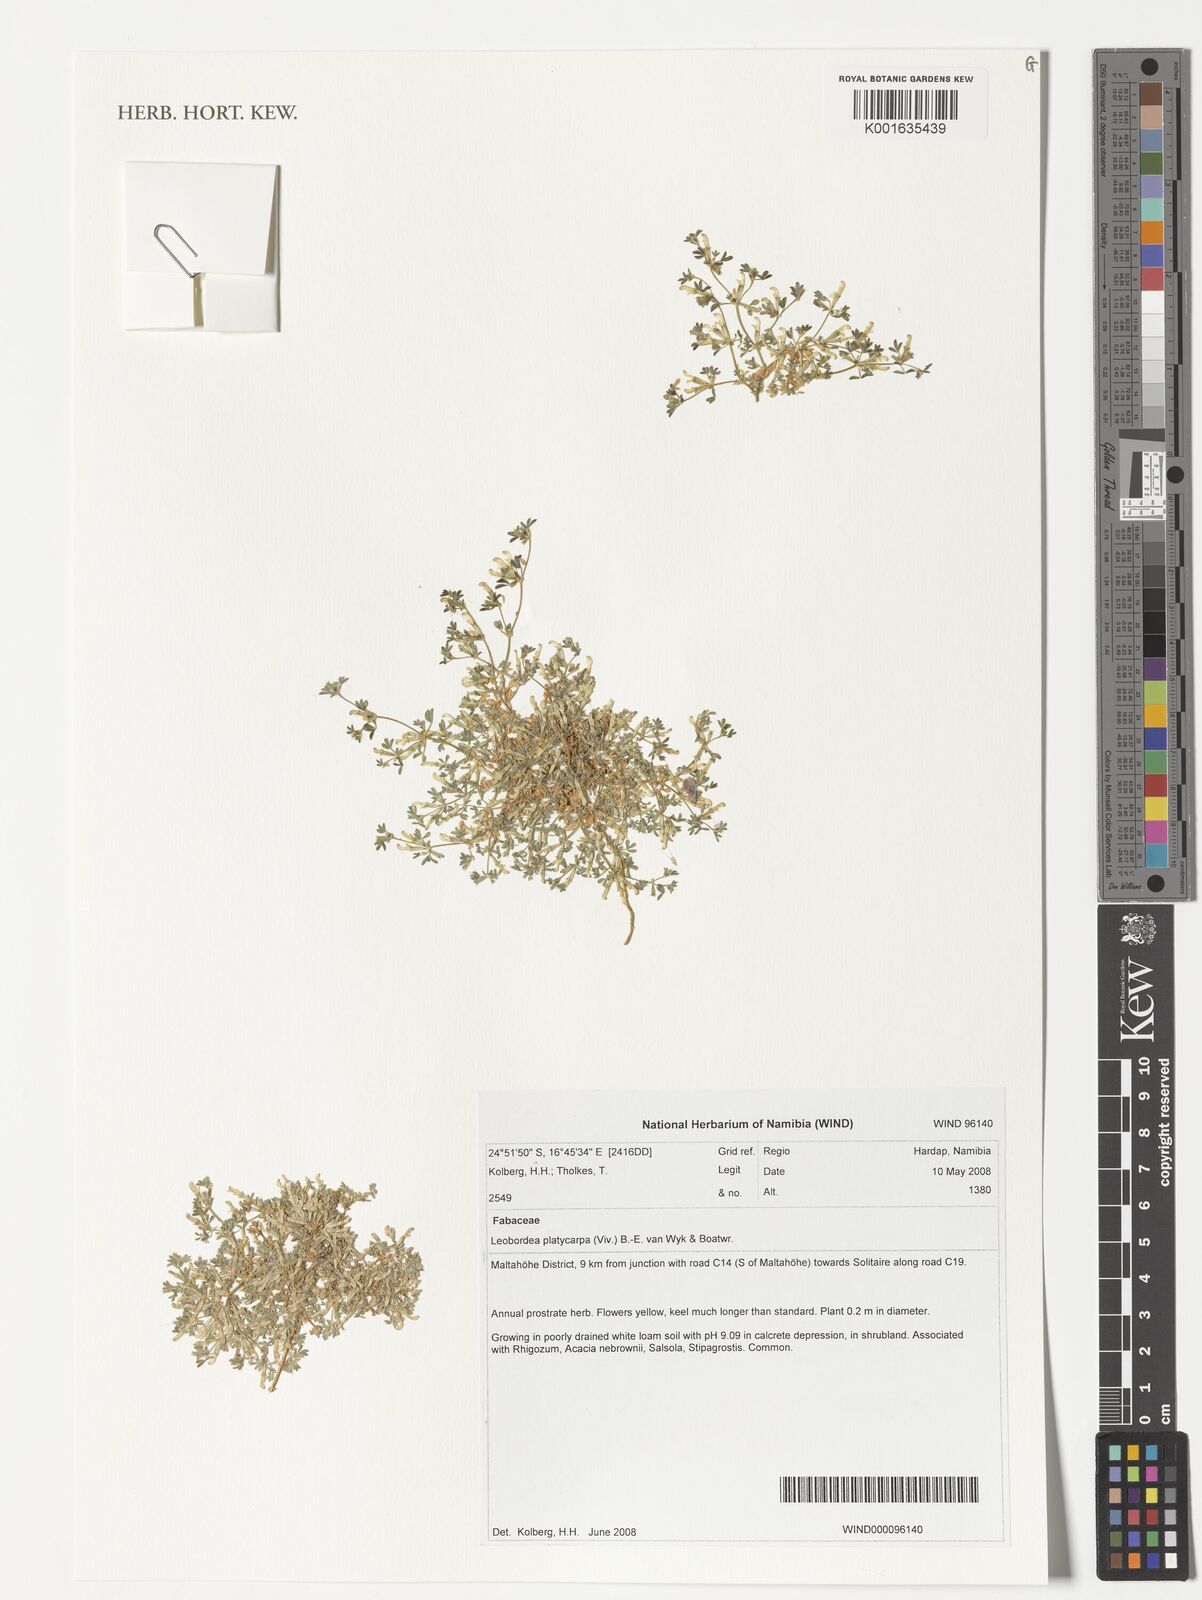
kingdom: Plantae
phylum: Tracheophyta
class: Magnoliopsida
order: Fabales
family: Fabaceae
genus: Leobordea
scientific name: Leobordea platycarpa
